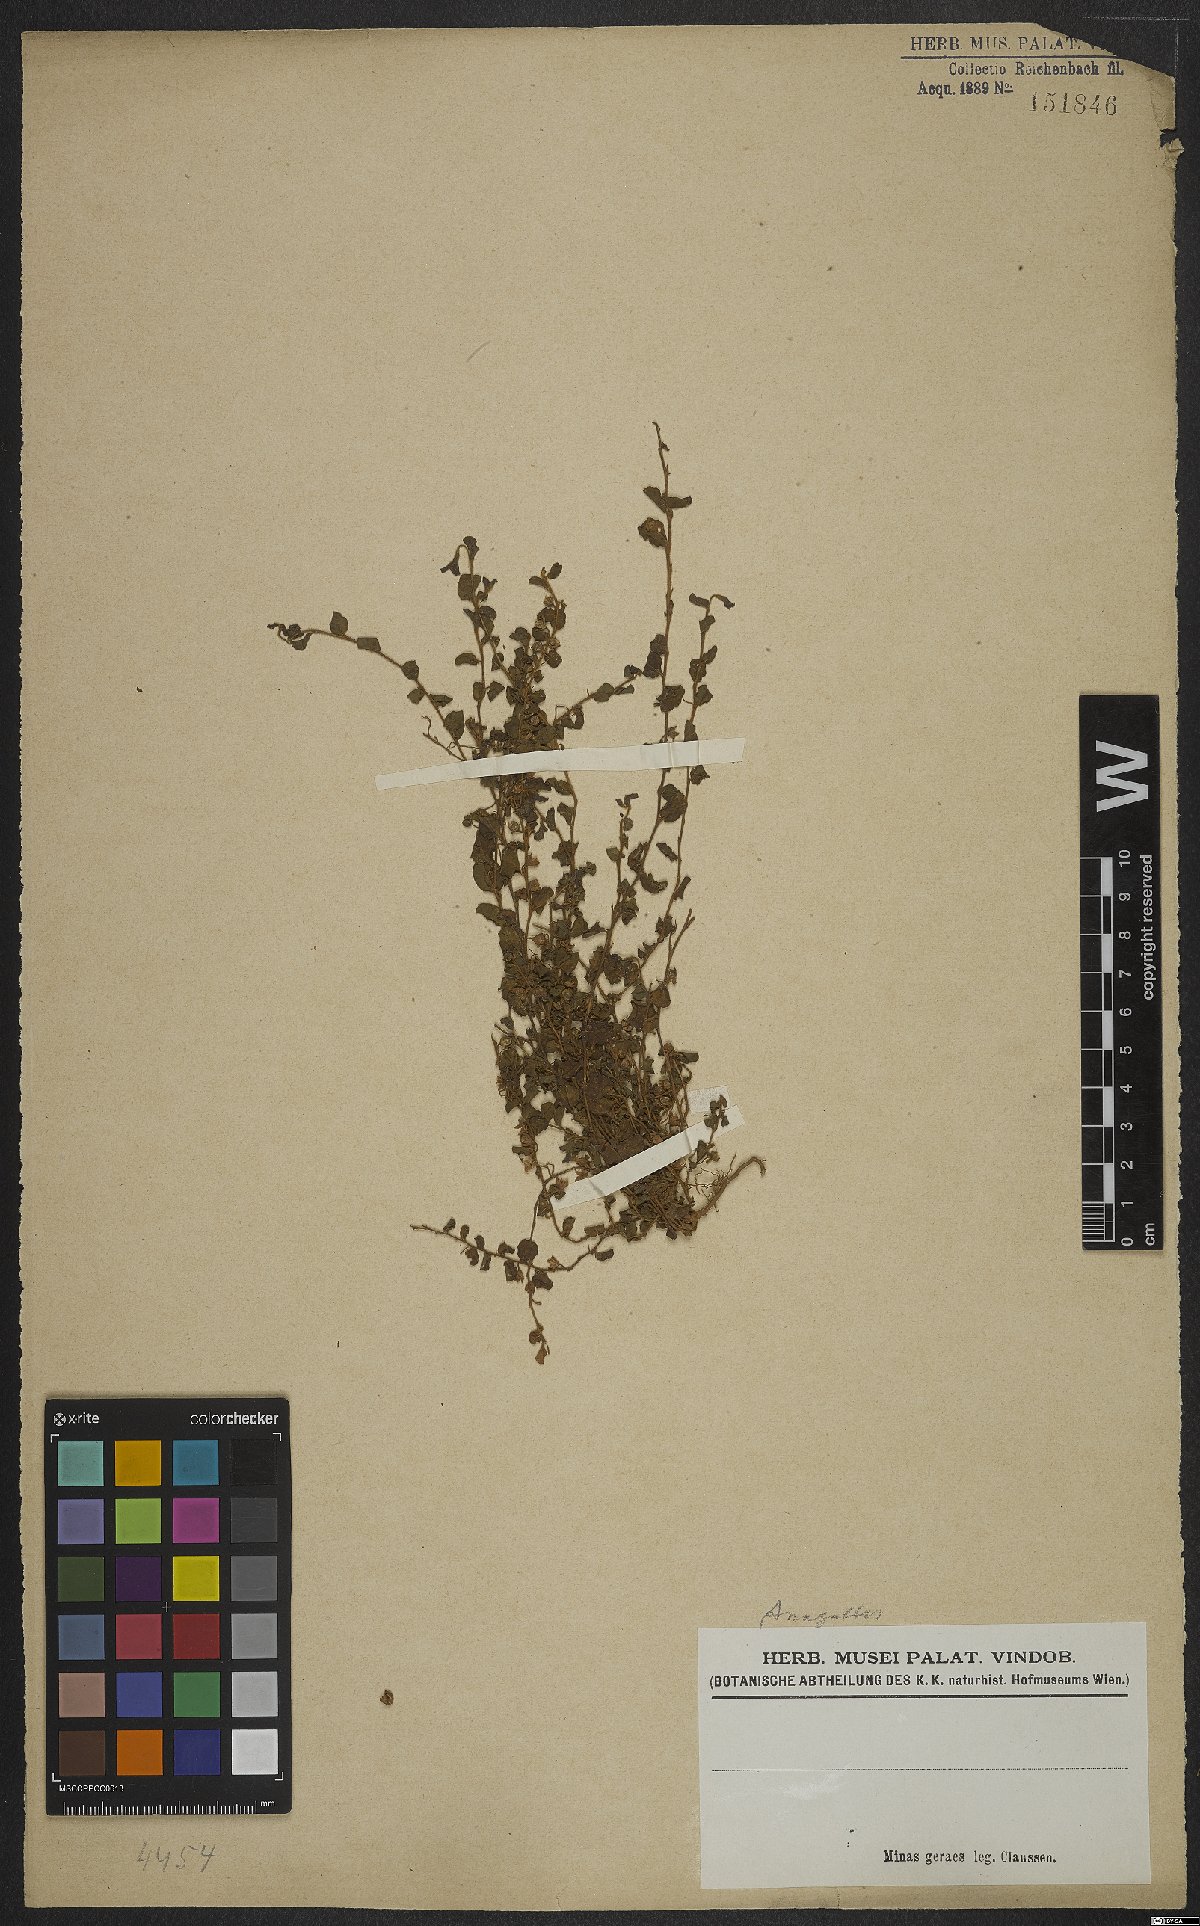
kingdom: Plantae
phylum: Tracheophyta
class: Magnoliopsida
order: Ericales
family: Primulaceae
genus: Lysimachia
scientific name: Lysimachia Anagallis spec
